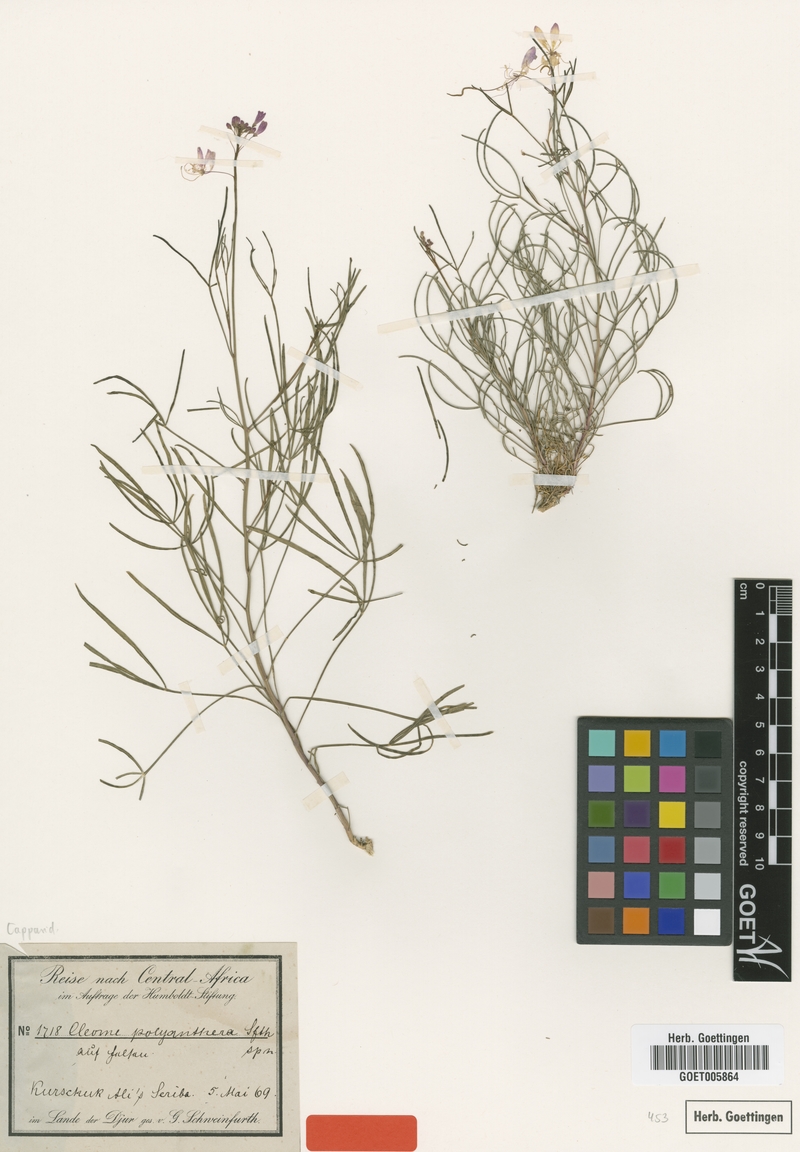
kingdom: Plantae
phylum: Tracheophyta
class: Magnoliopsida
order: Brassicales
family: Cleomaceae
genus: Coalisina
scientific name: Coalisina polyanthera
